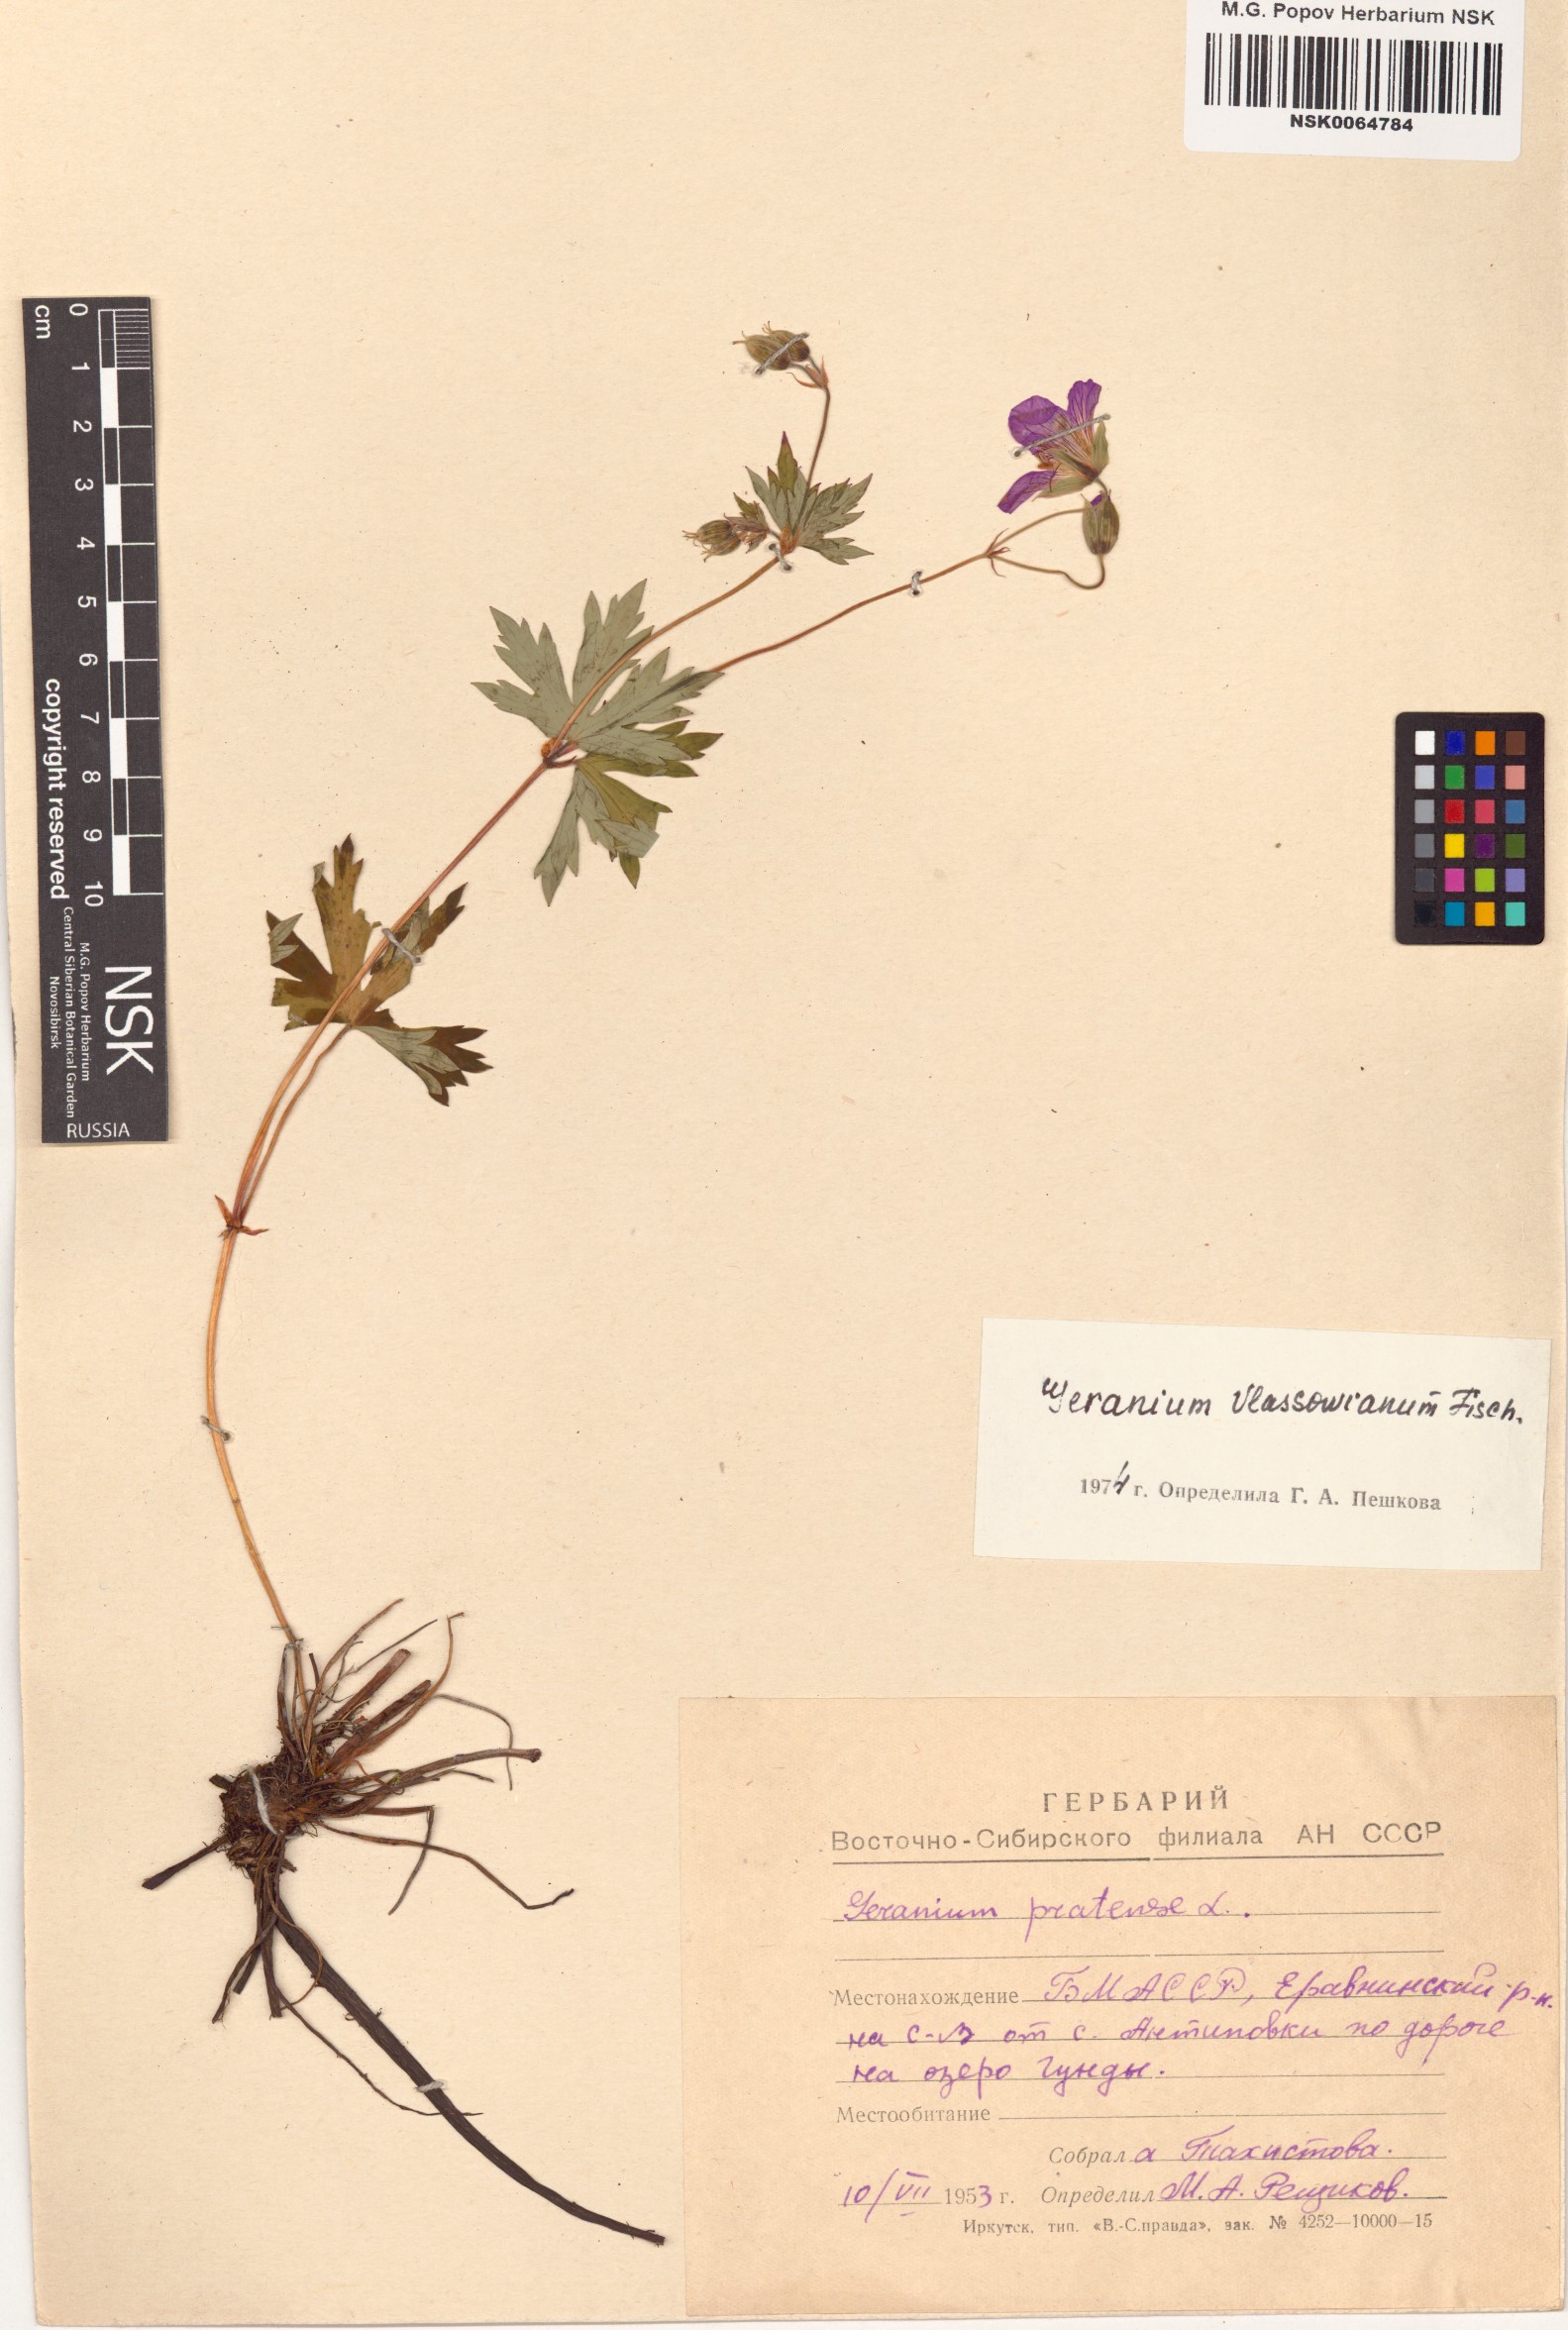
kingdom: Plantae
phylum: Tracheophyta
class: Magnoliopsida
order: Geraniales
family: Geraniaceae
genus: Geranium
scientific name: Geranium wlassovianum
